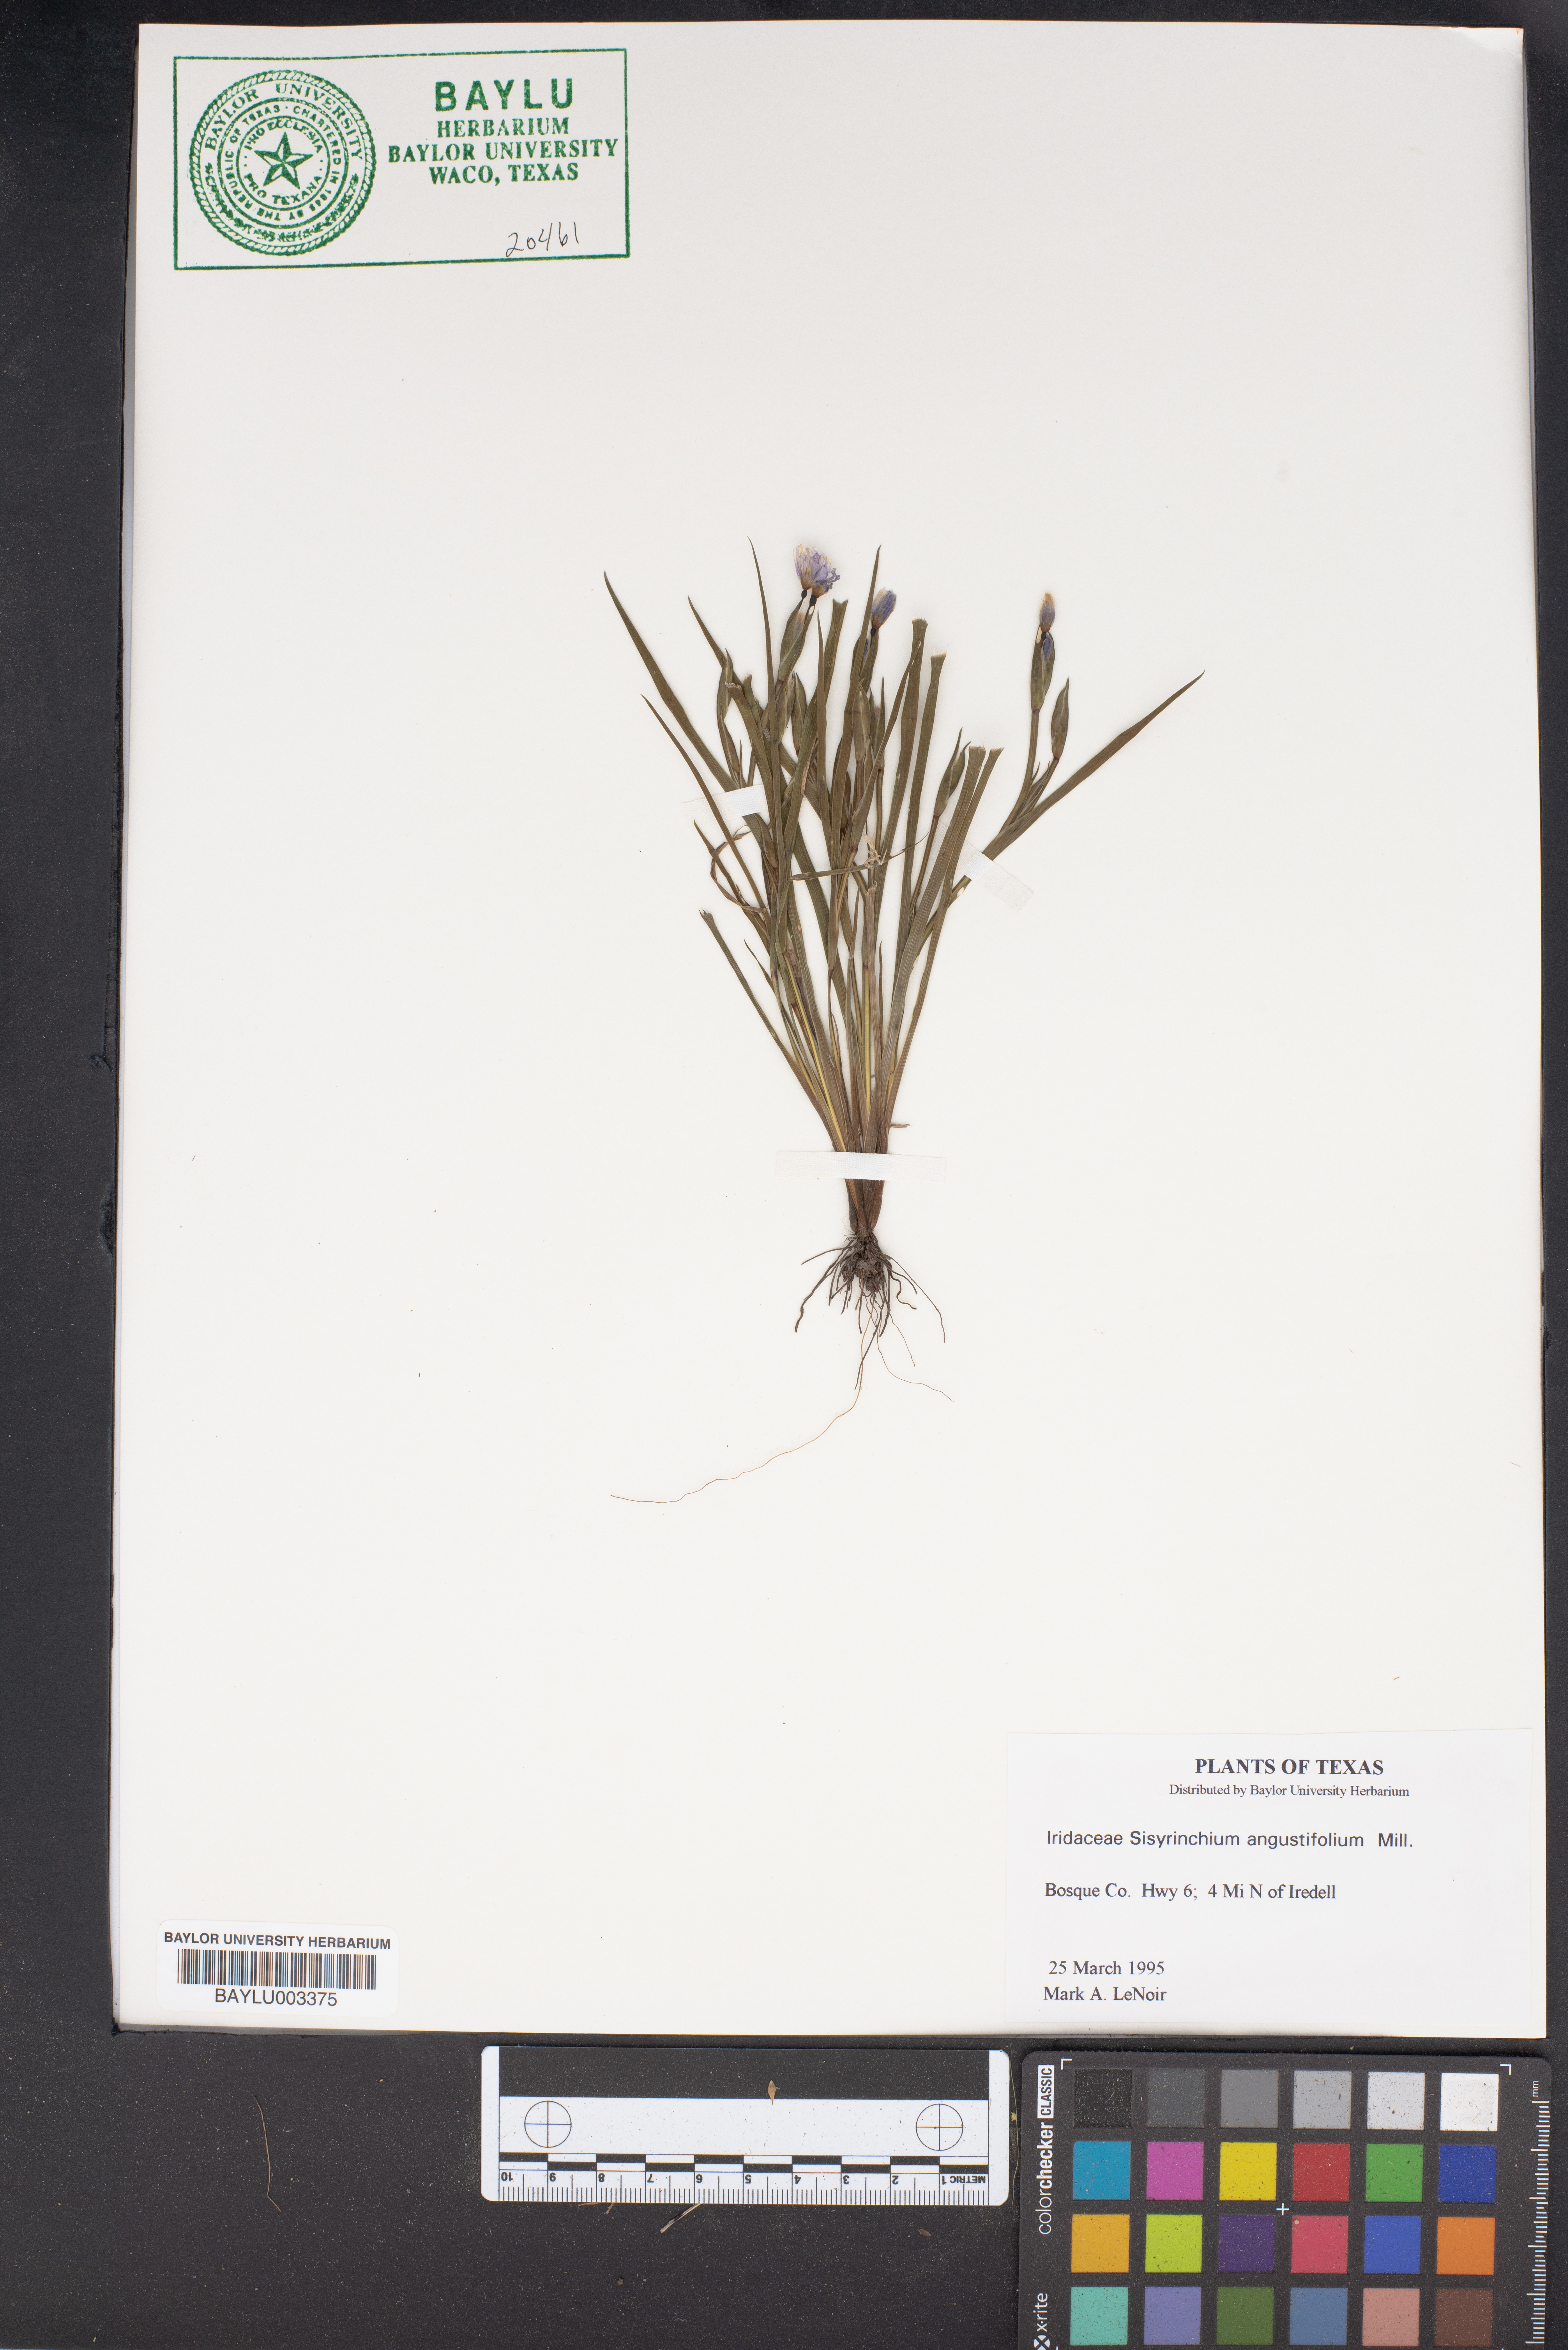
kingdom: Plantae
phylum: Tracheophyta
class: Liliopsida
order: Asparagales
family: Iridaceae
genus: Sisyrinchium
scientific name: Sisyrinchium angustifolium
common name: Narrow-leaf blue-eyed-grass
